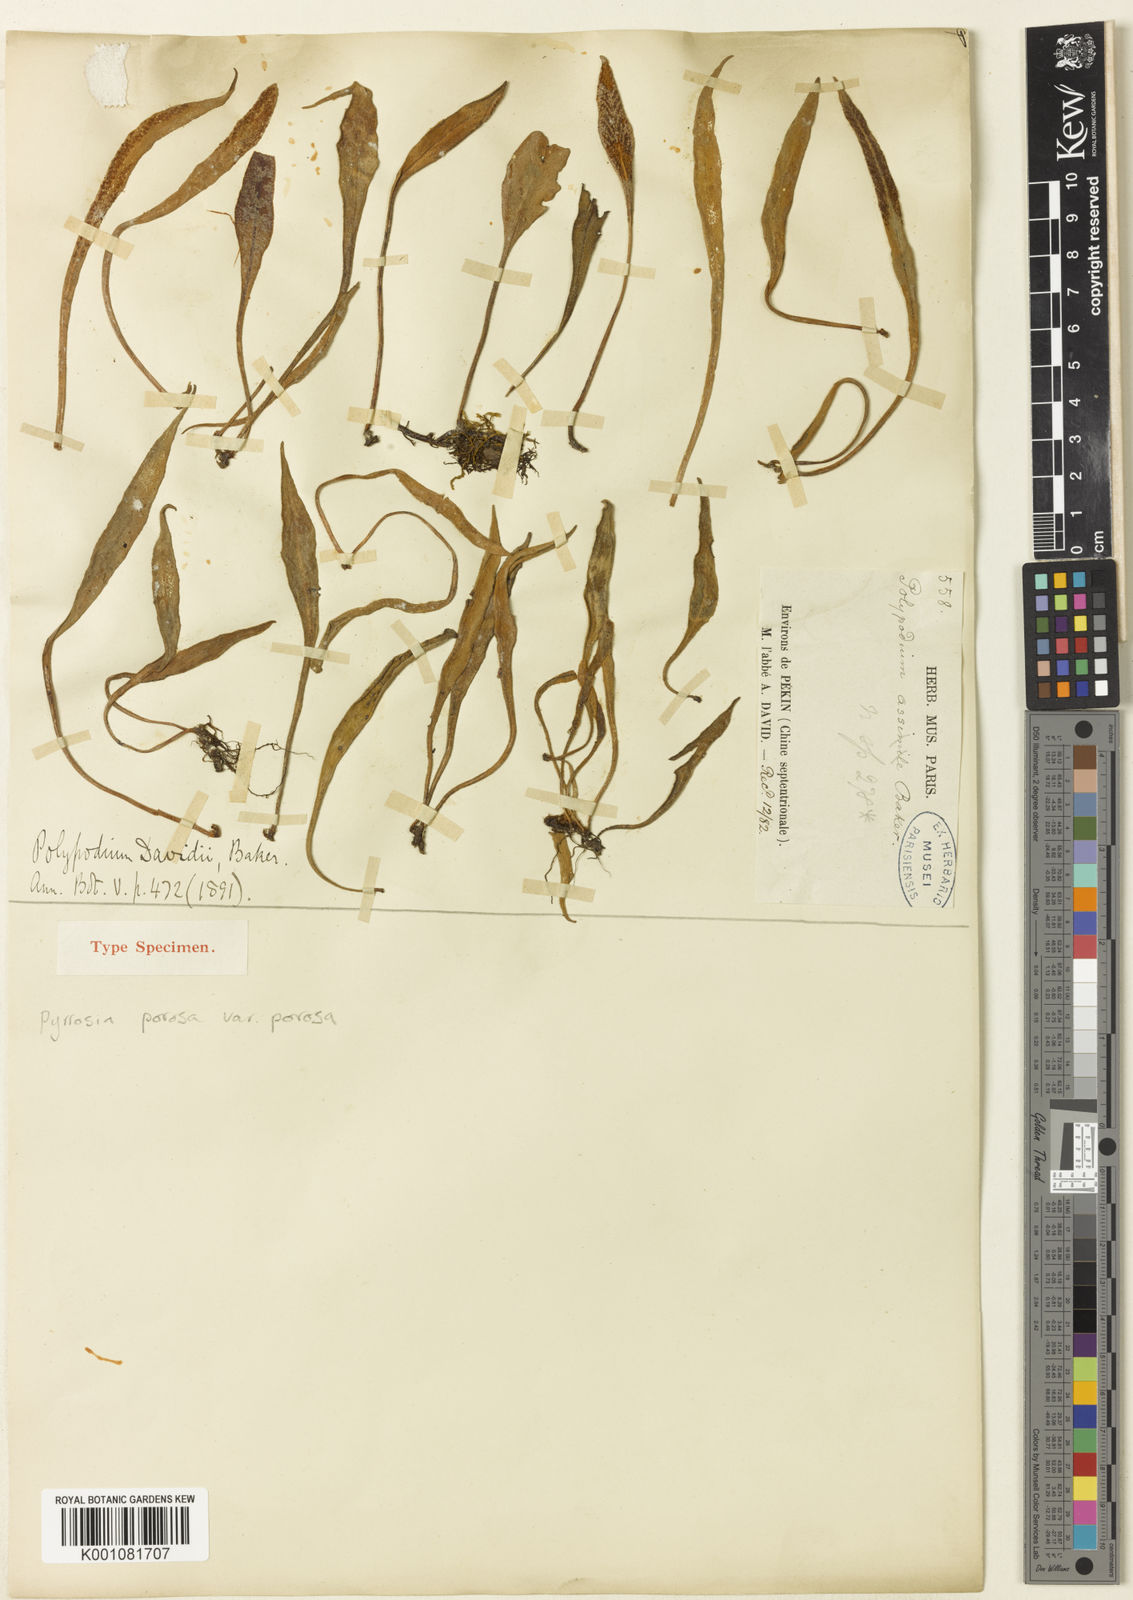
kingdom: Plantae
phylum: Tracheophyta
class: Polypodiopsida
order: Polypodiales
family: Polypodiaceae
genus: Pyrrosia
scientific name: Pyrrosia porosa
